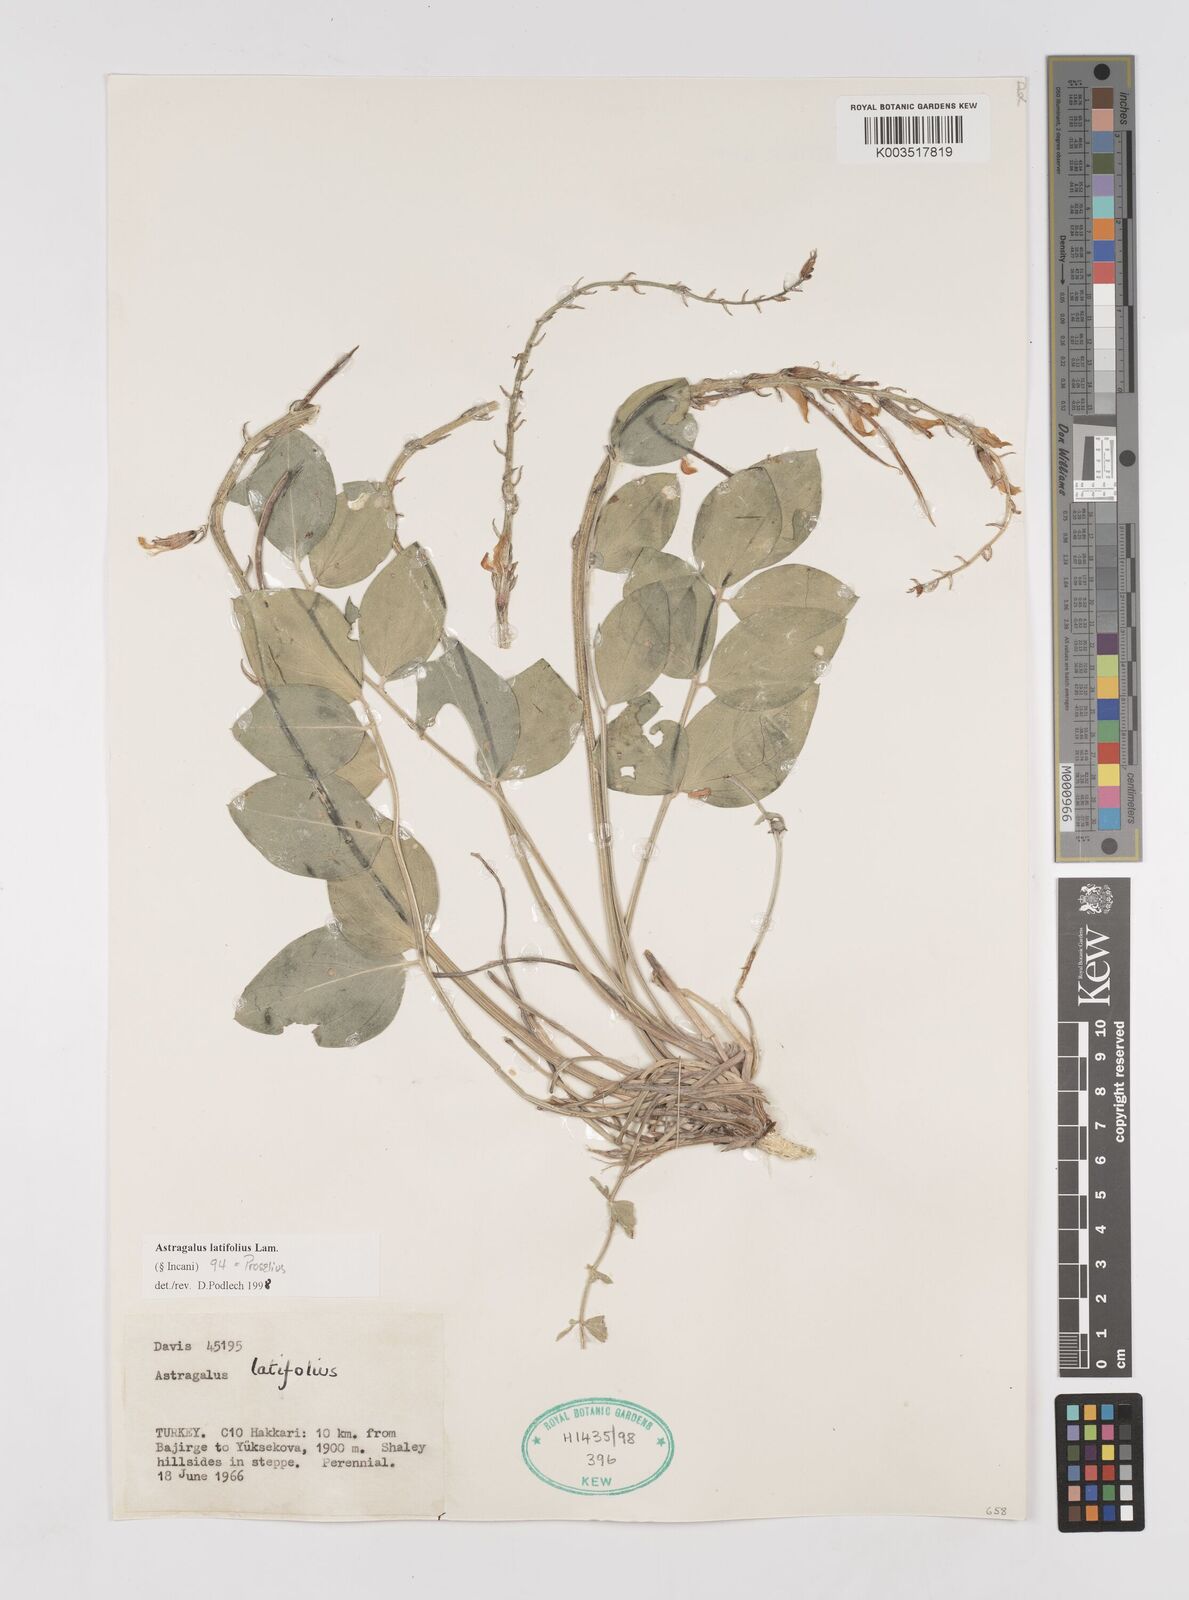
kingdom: Plantae
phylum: Tracheophyta
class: Magnoliopsida
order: Fabales
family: Fabaceae
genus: Astragalus
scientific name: Astragalus latifolius
